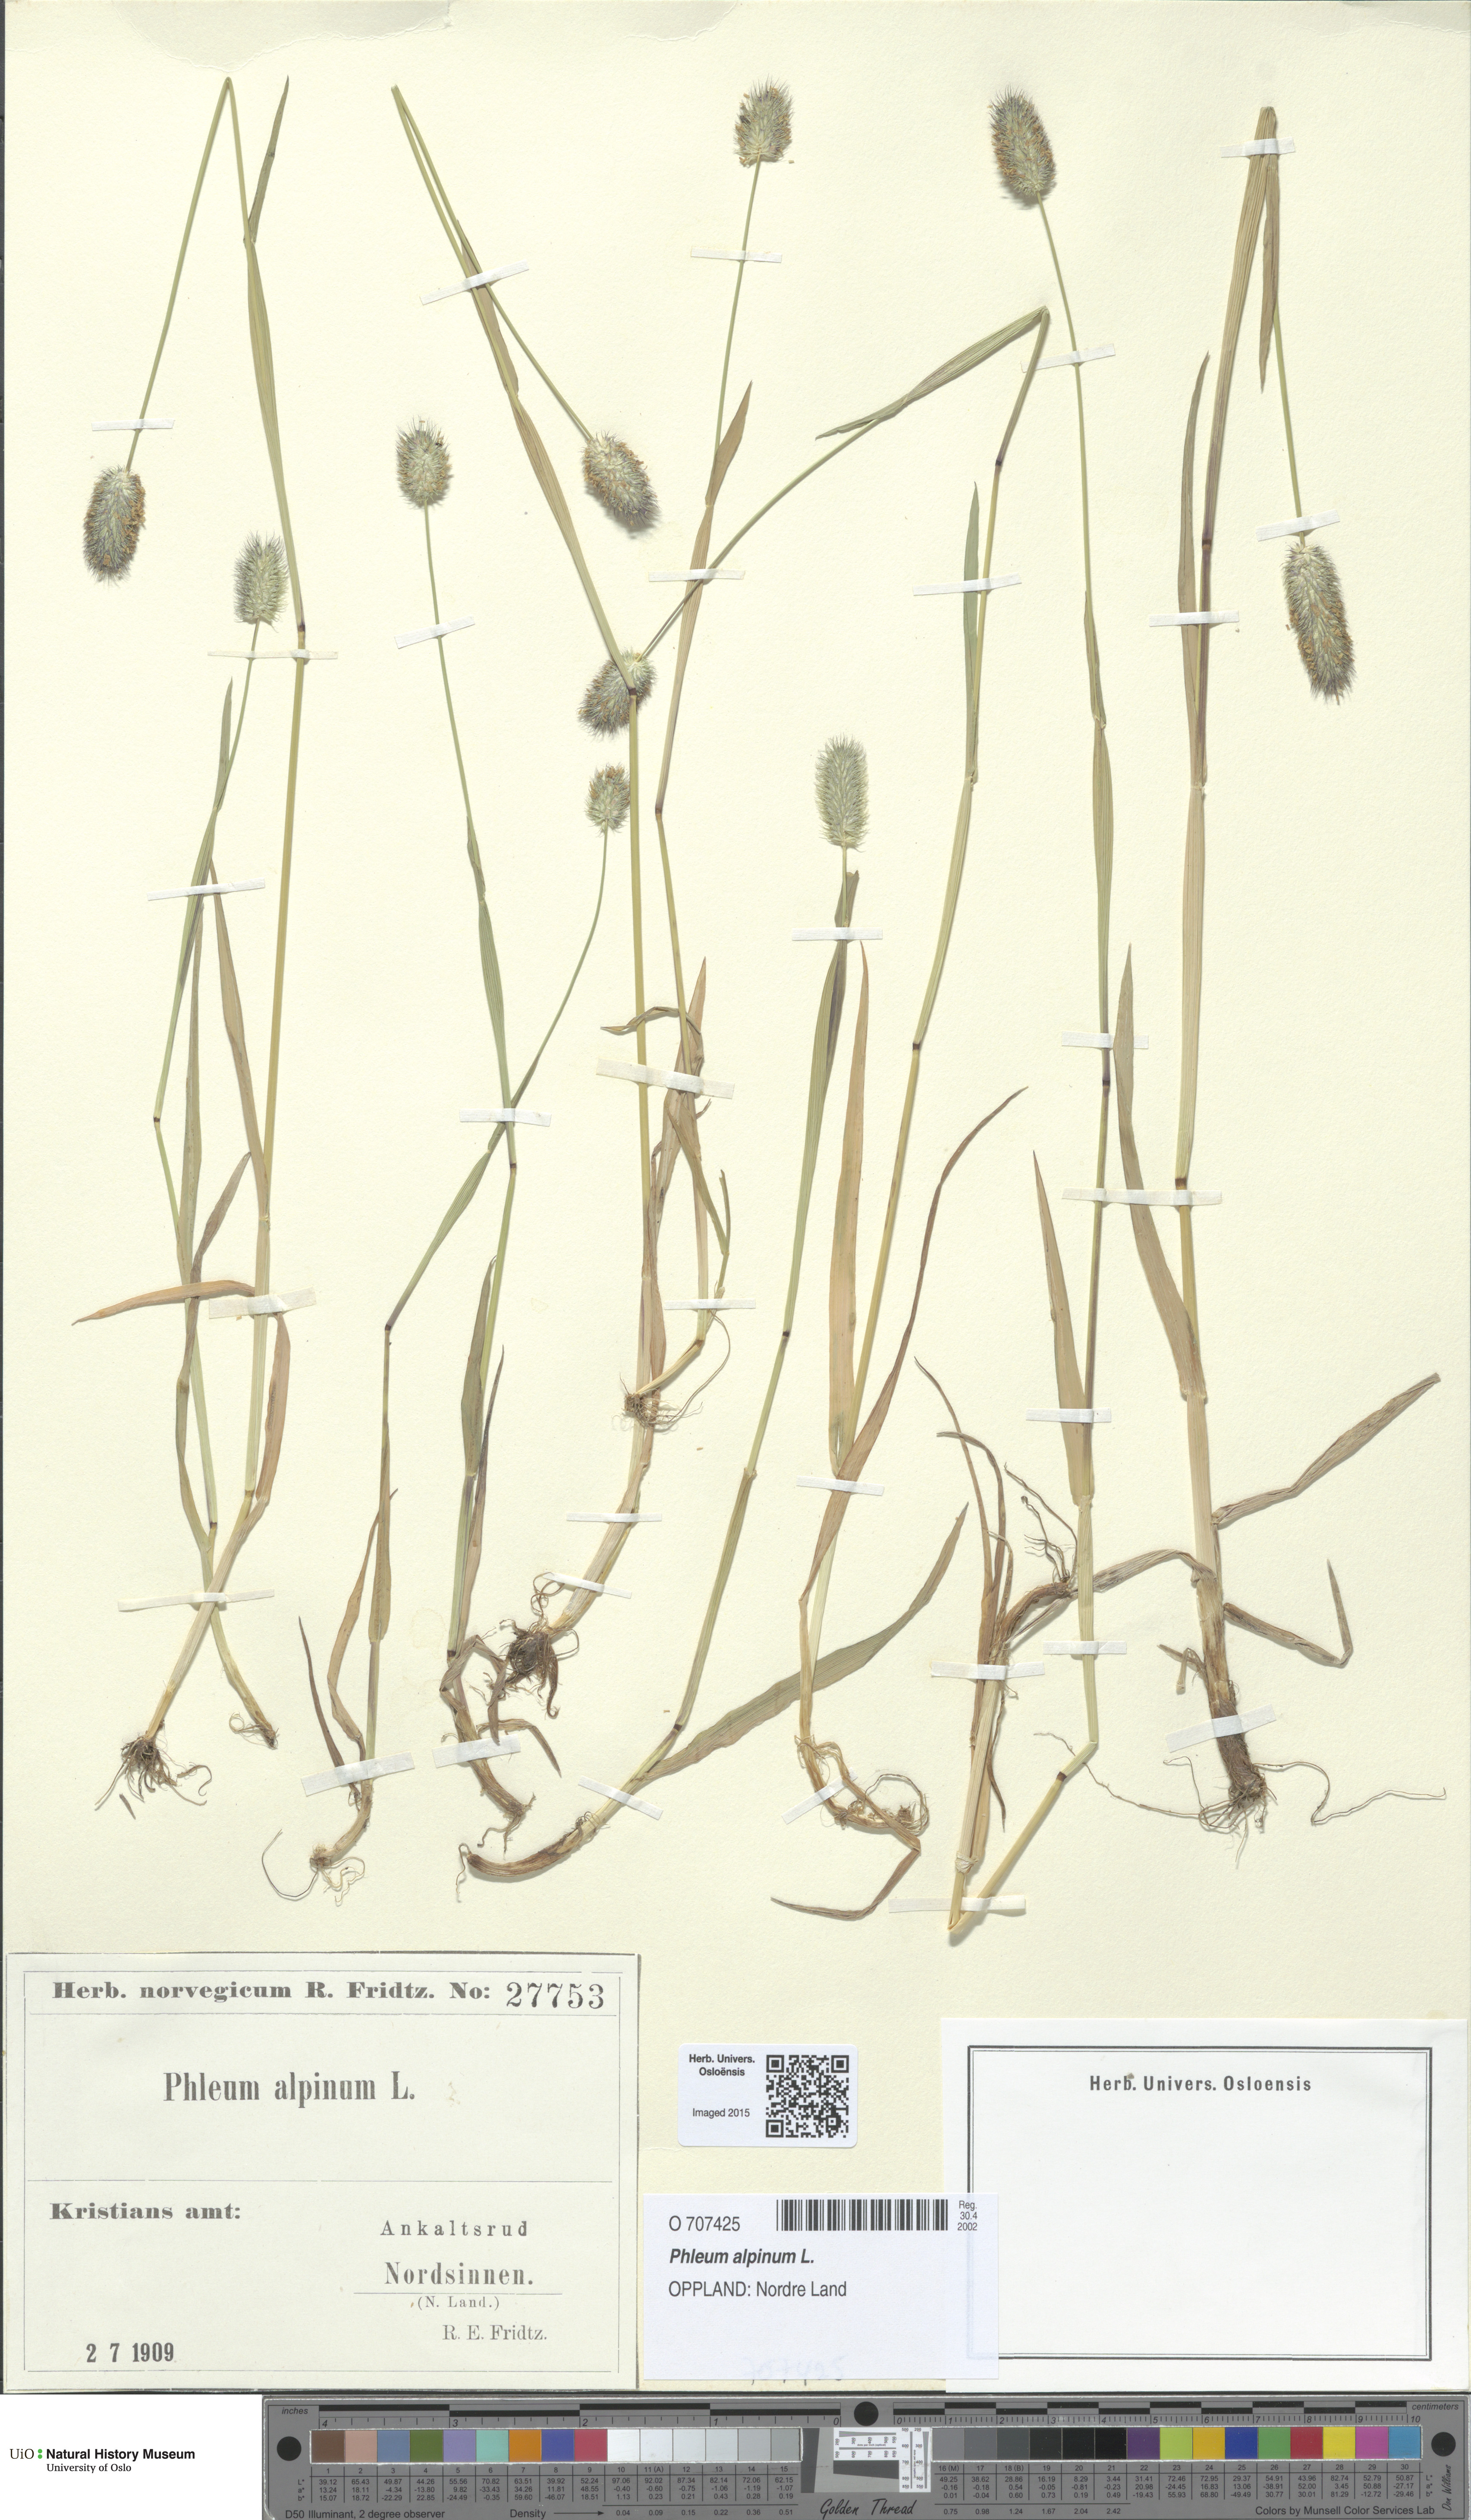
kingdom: Plantae
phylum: Tracheophyta
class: Liliopsida
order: Poales
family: Poaceae
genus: Phleum
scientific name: Phleum alpinum
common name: Alpine cat's-tail
